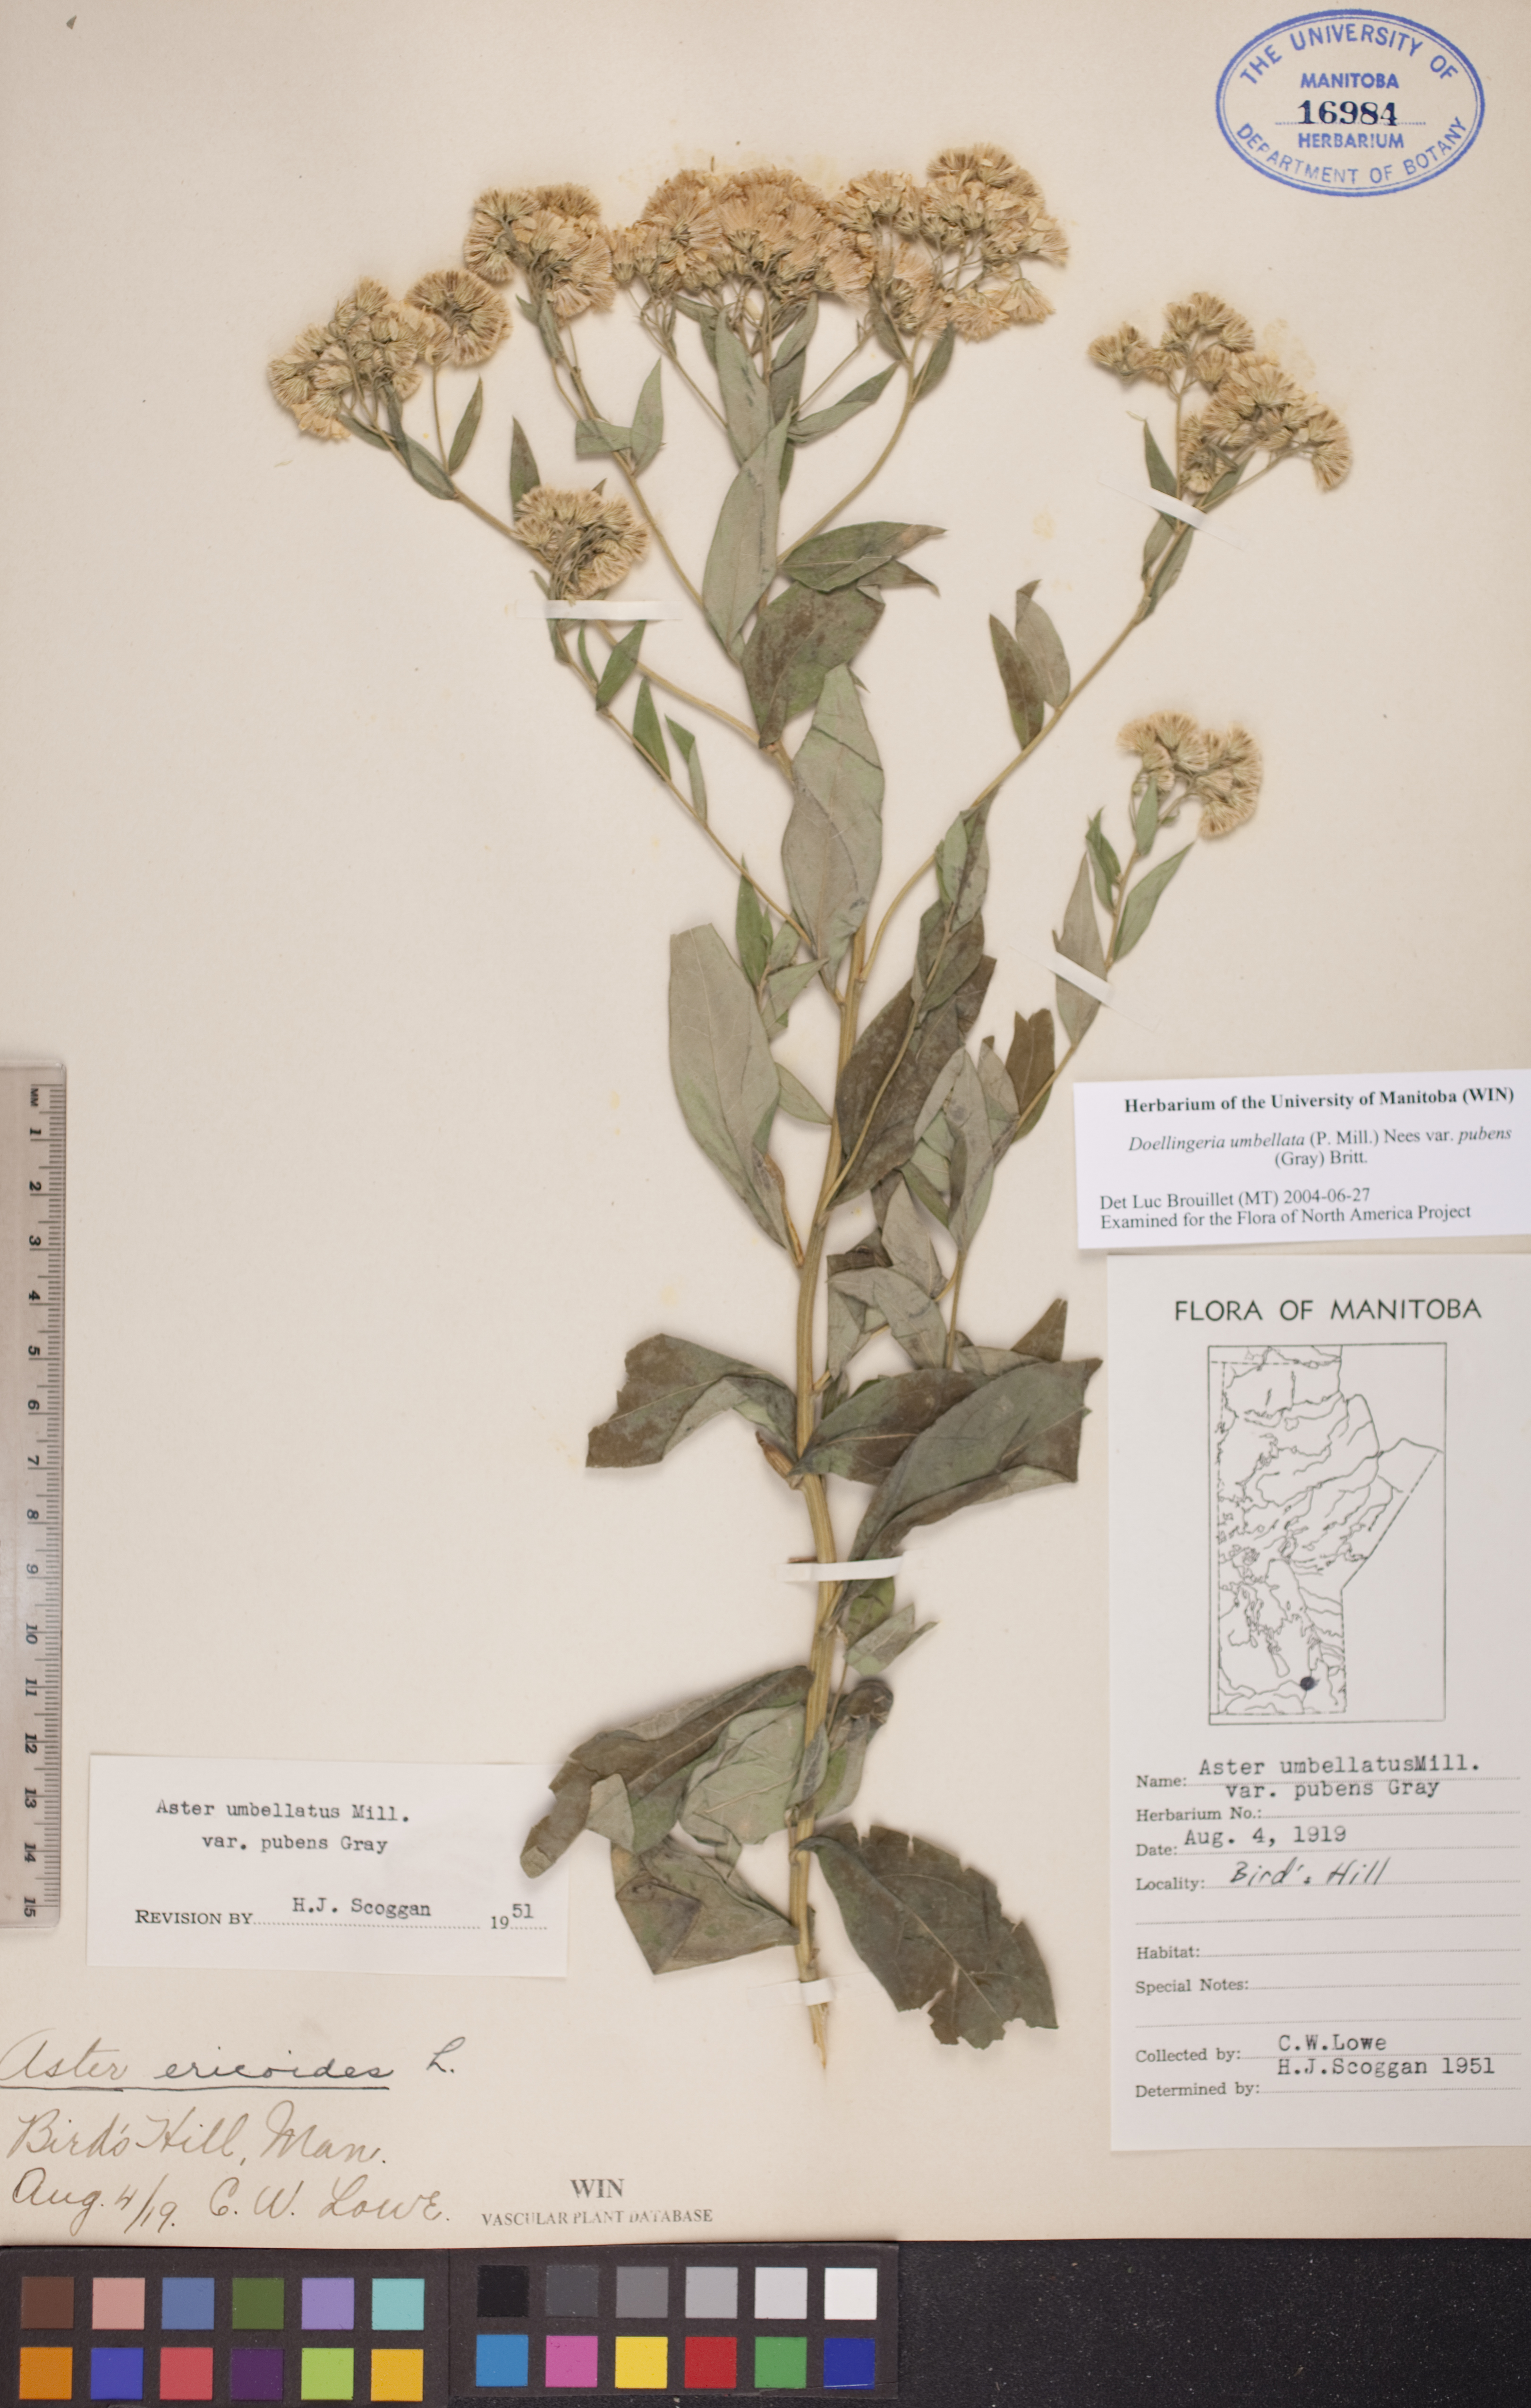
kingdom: Plantae
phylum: Tracheophyta
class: Magnoliopsida
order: Asterales
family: Asteraceae
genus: Doellingeria
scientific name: Doellingeria umbellata
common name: Flat-top white aster
